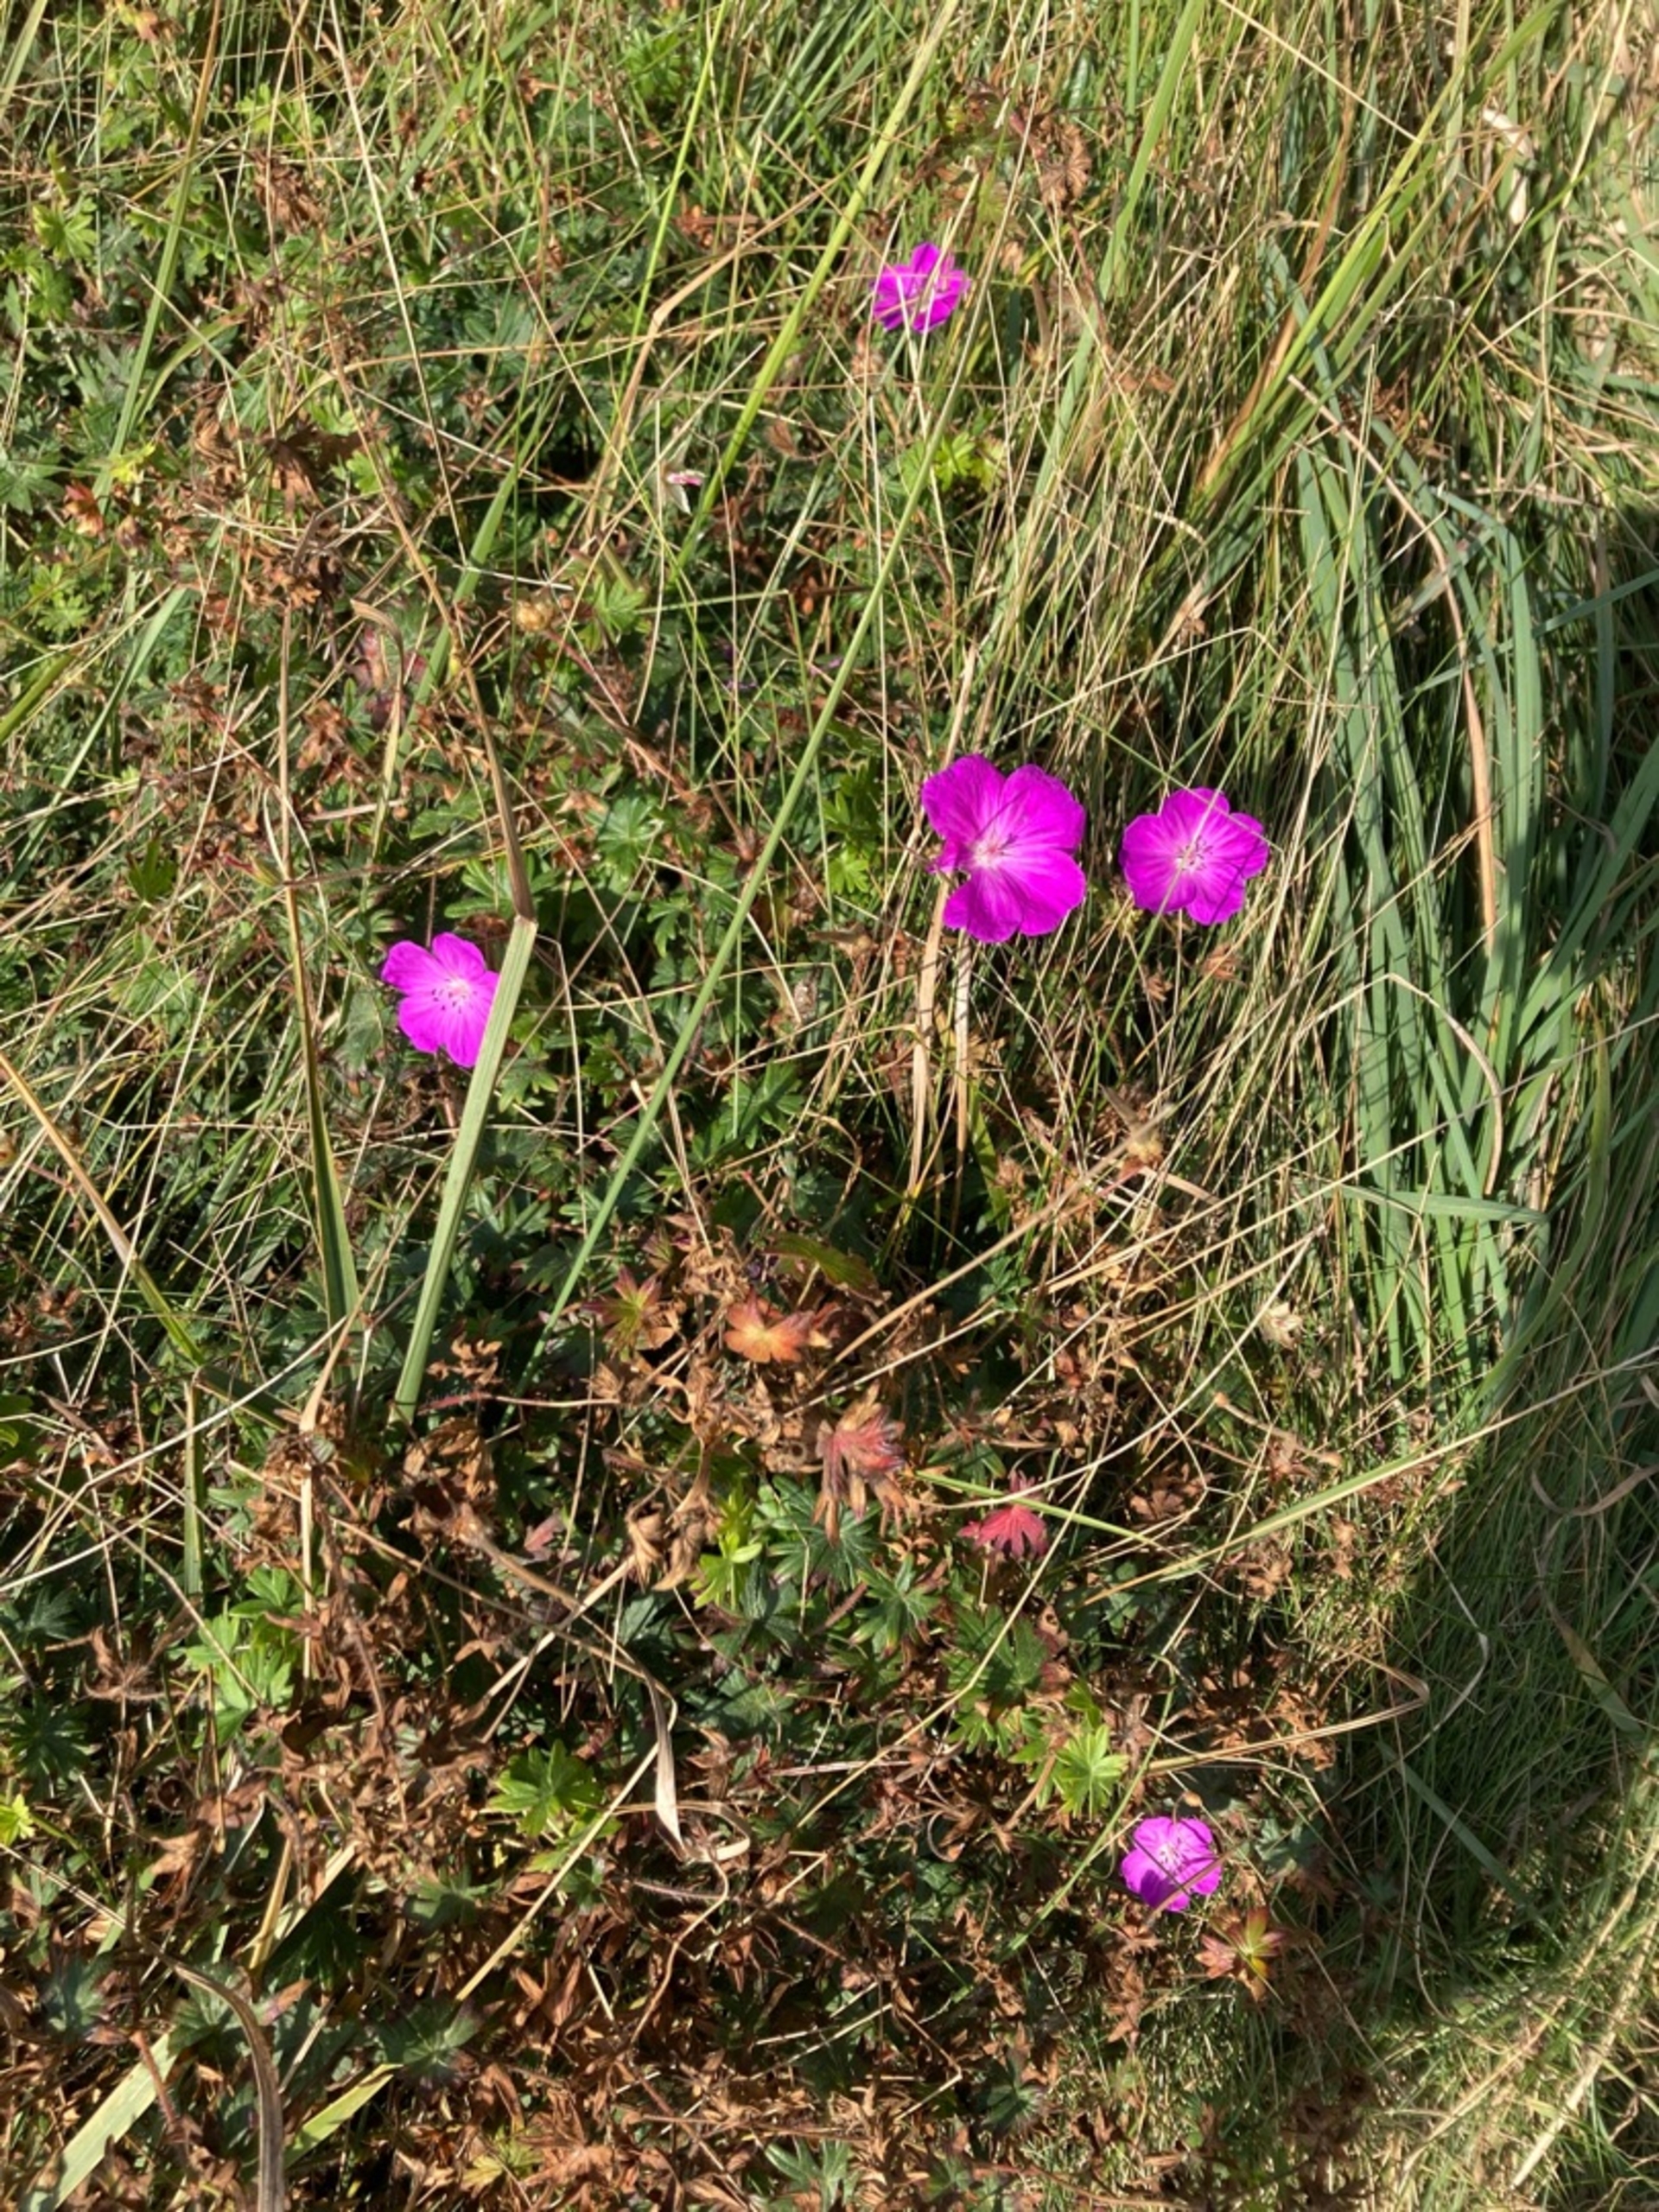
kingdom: Plantae
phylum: Tracheophyta
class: Magnoliopsida
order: Geraniales
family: Geraniaceae
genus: Geranium
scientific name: Geranium sanguineum
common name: Blodrød storkenæb
